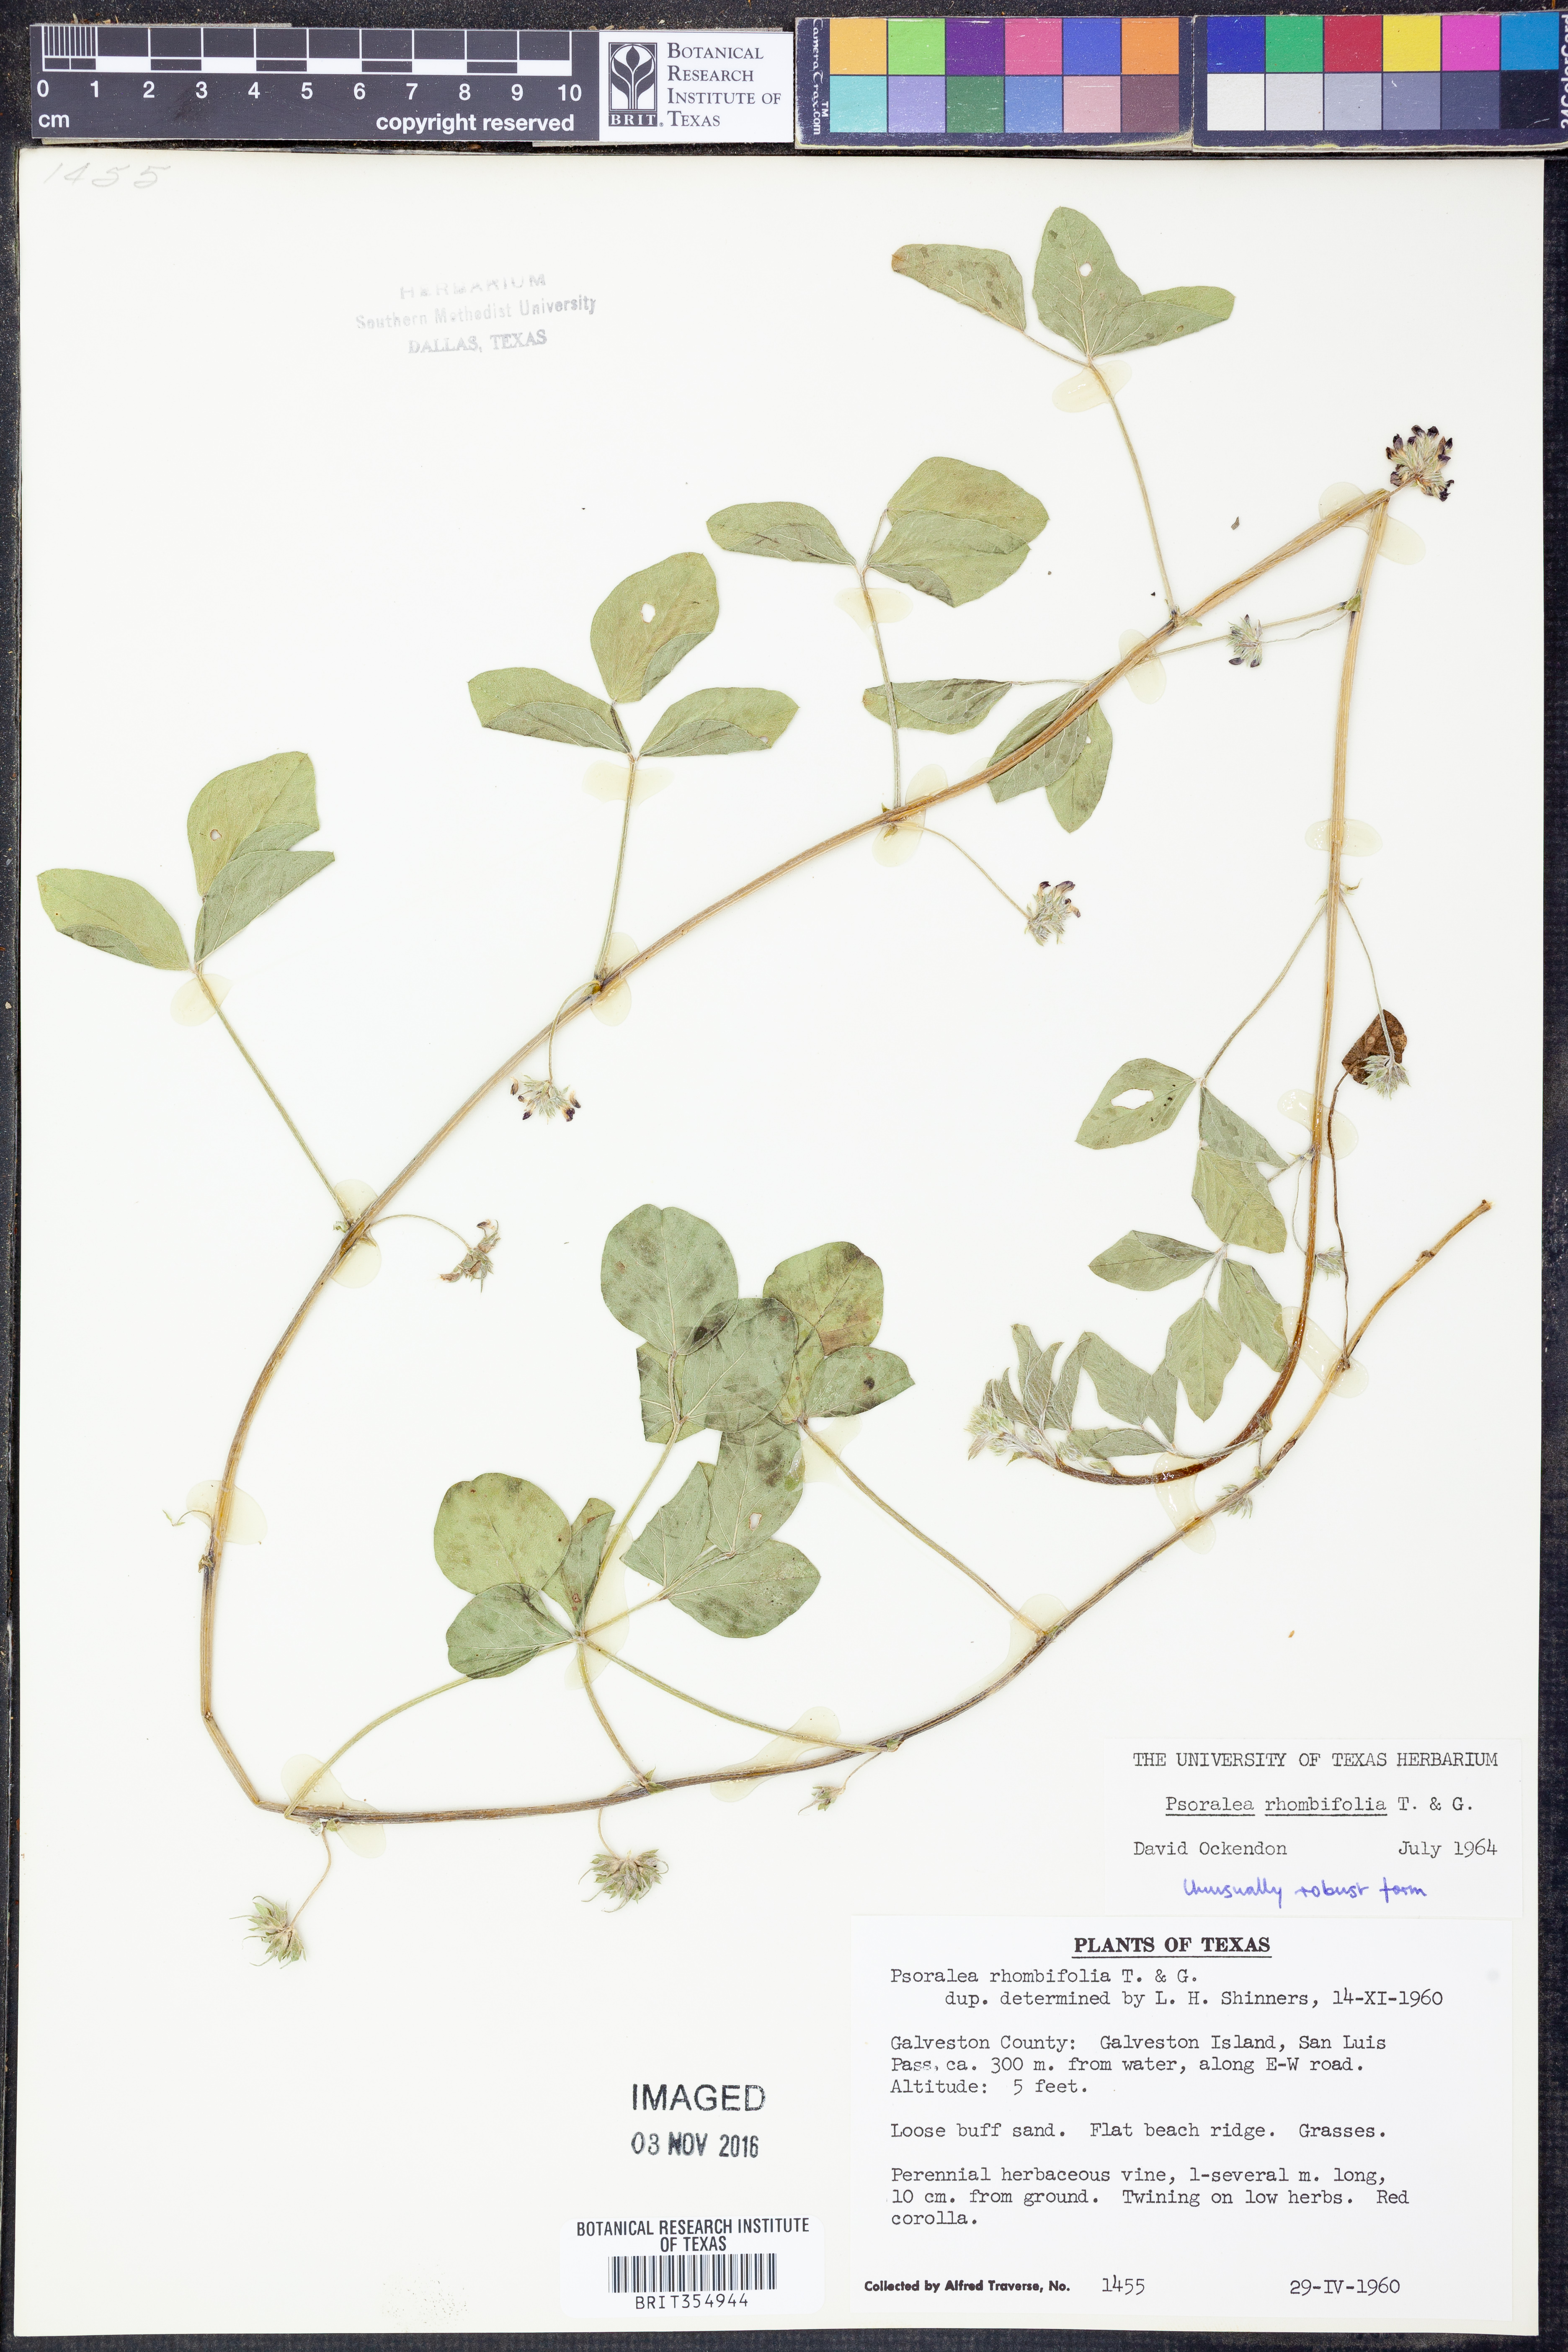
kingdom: Plantae
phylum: Tracheophyta
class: Magnoliopsida
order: Fabales
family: Fabaceae
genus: Pediomelum
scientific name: Pediomelum rhombifolium
